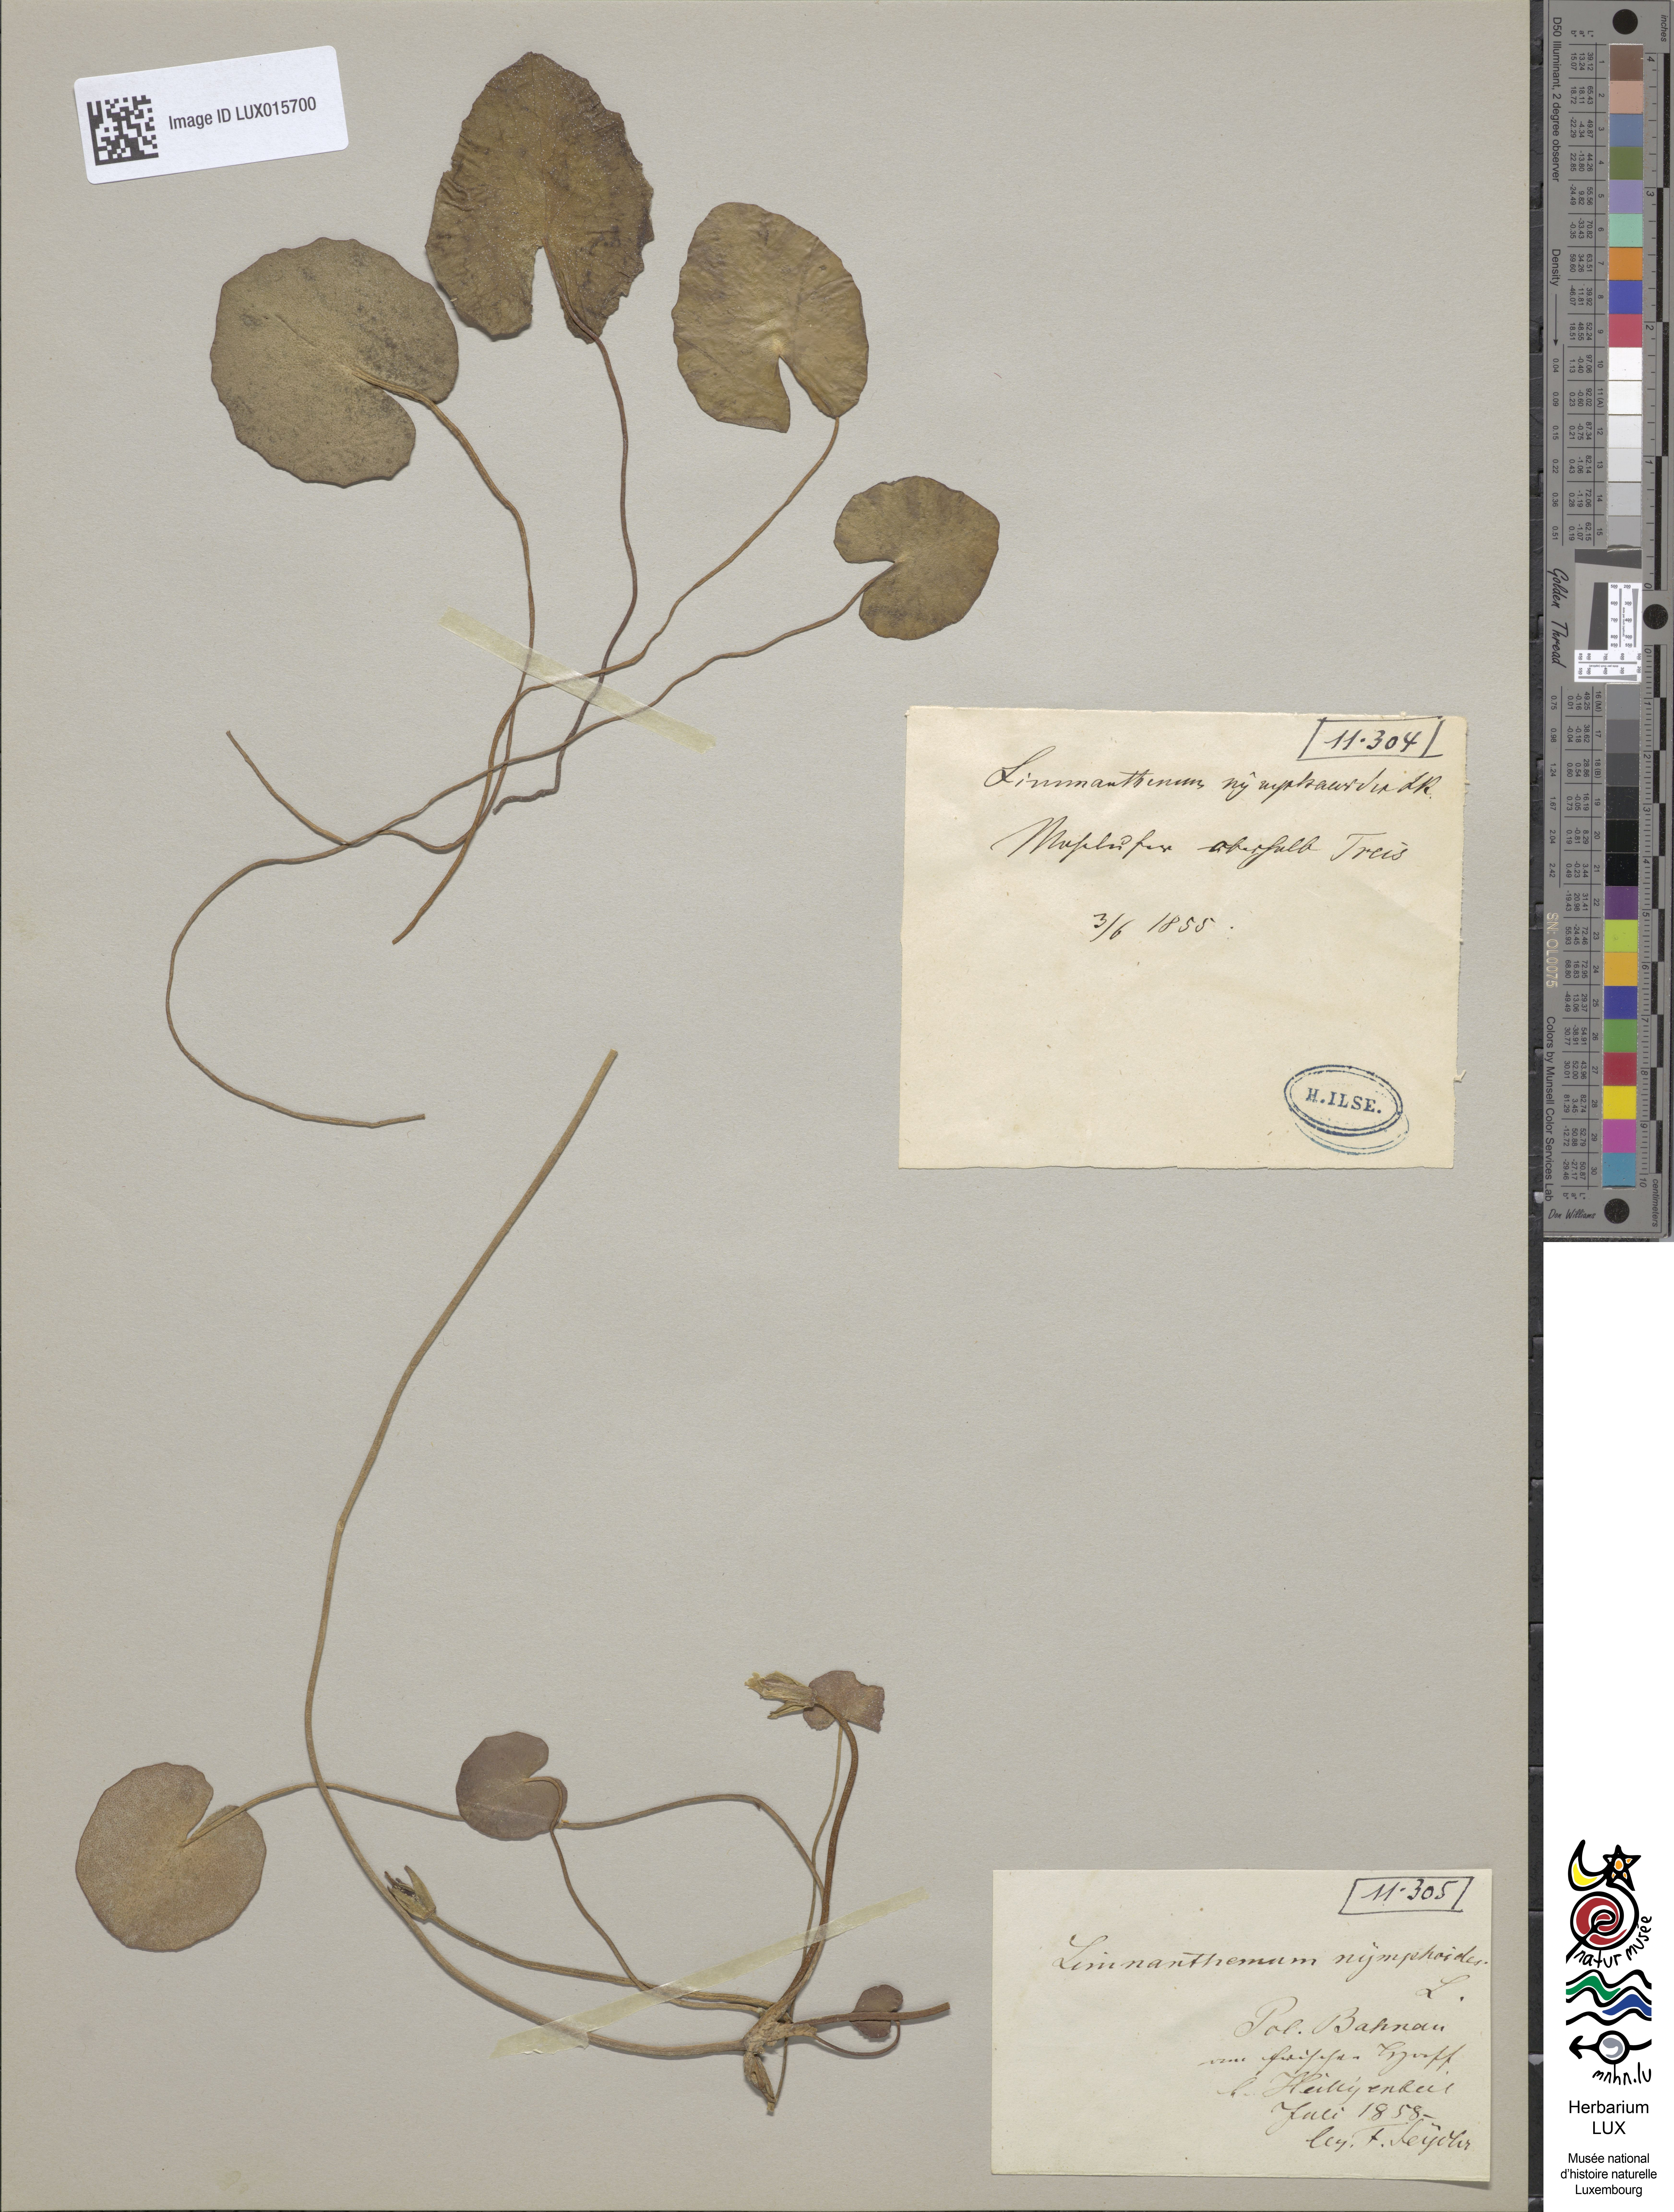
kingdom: Plantae
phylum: Tracheophyta
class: Magnoliopsida
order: Asterales
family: Menyanthaceae
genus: Nymphoides
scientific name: Nymphoides peltata
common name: Fringed water-lily
